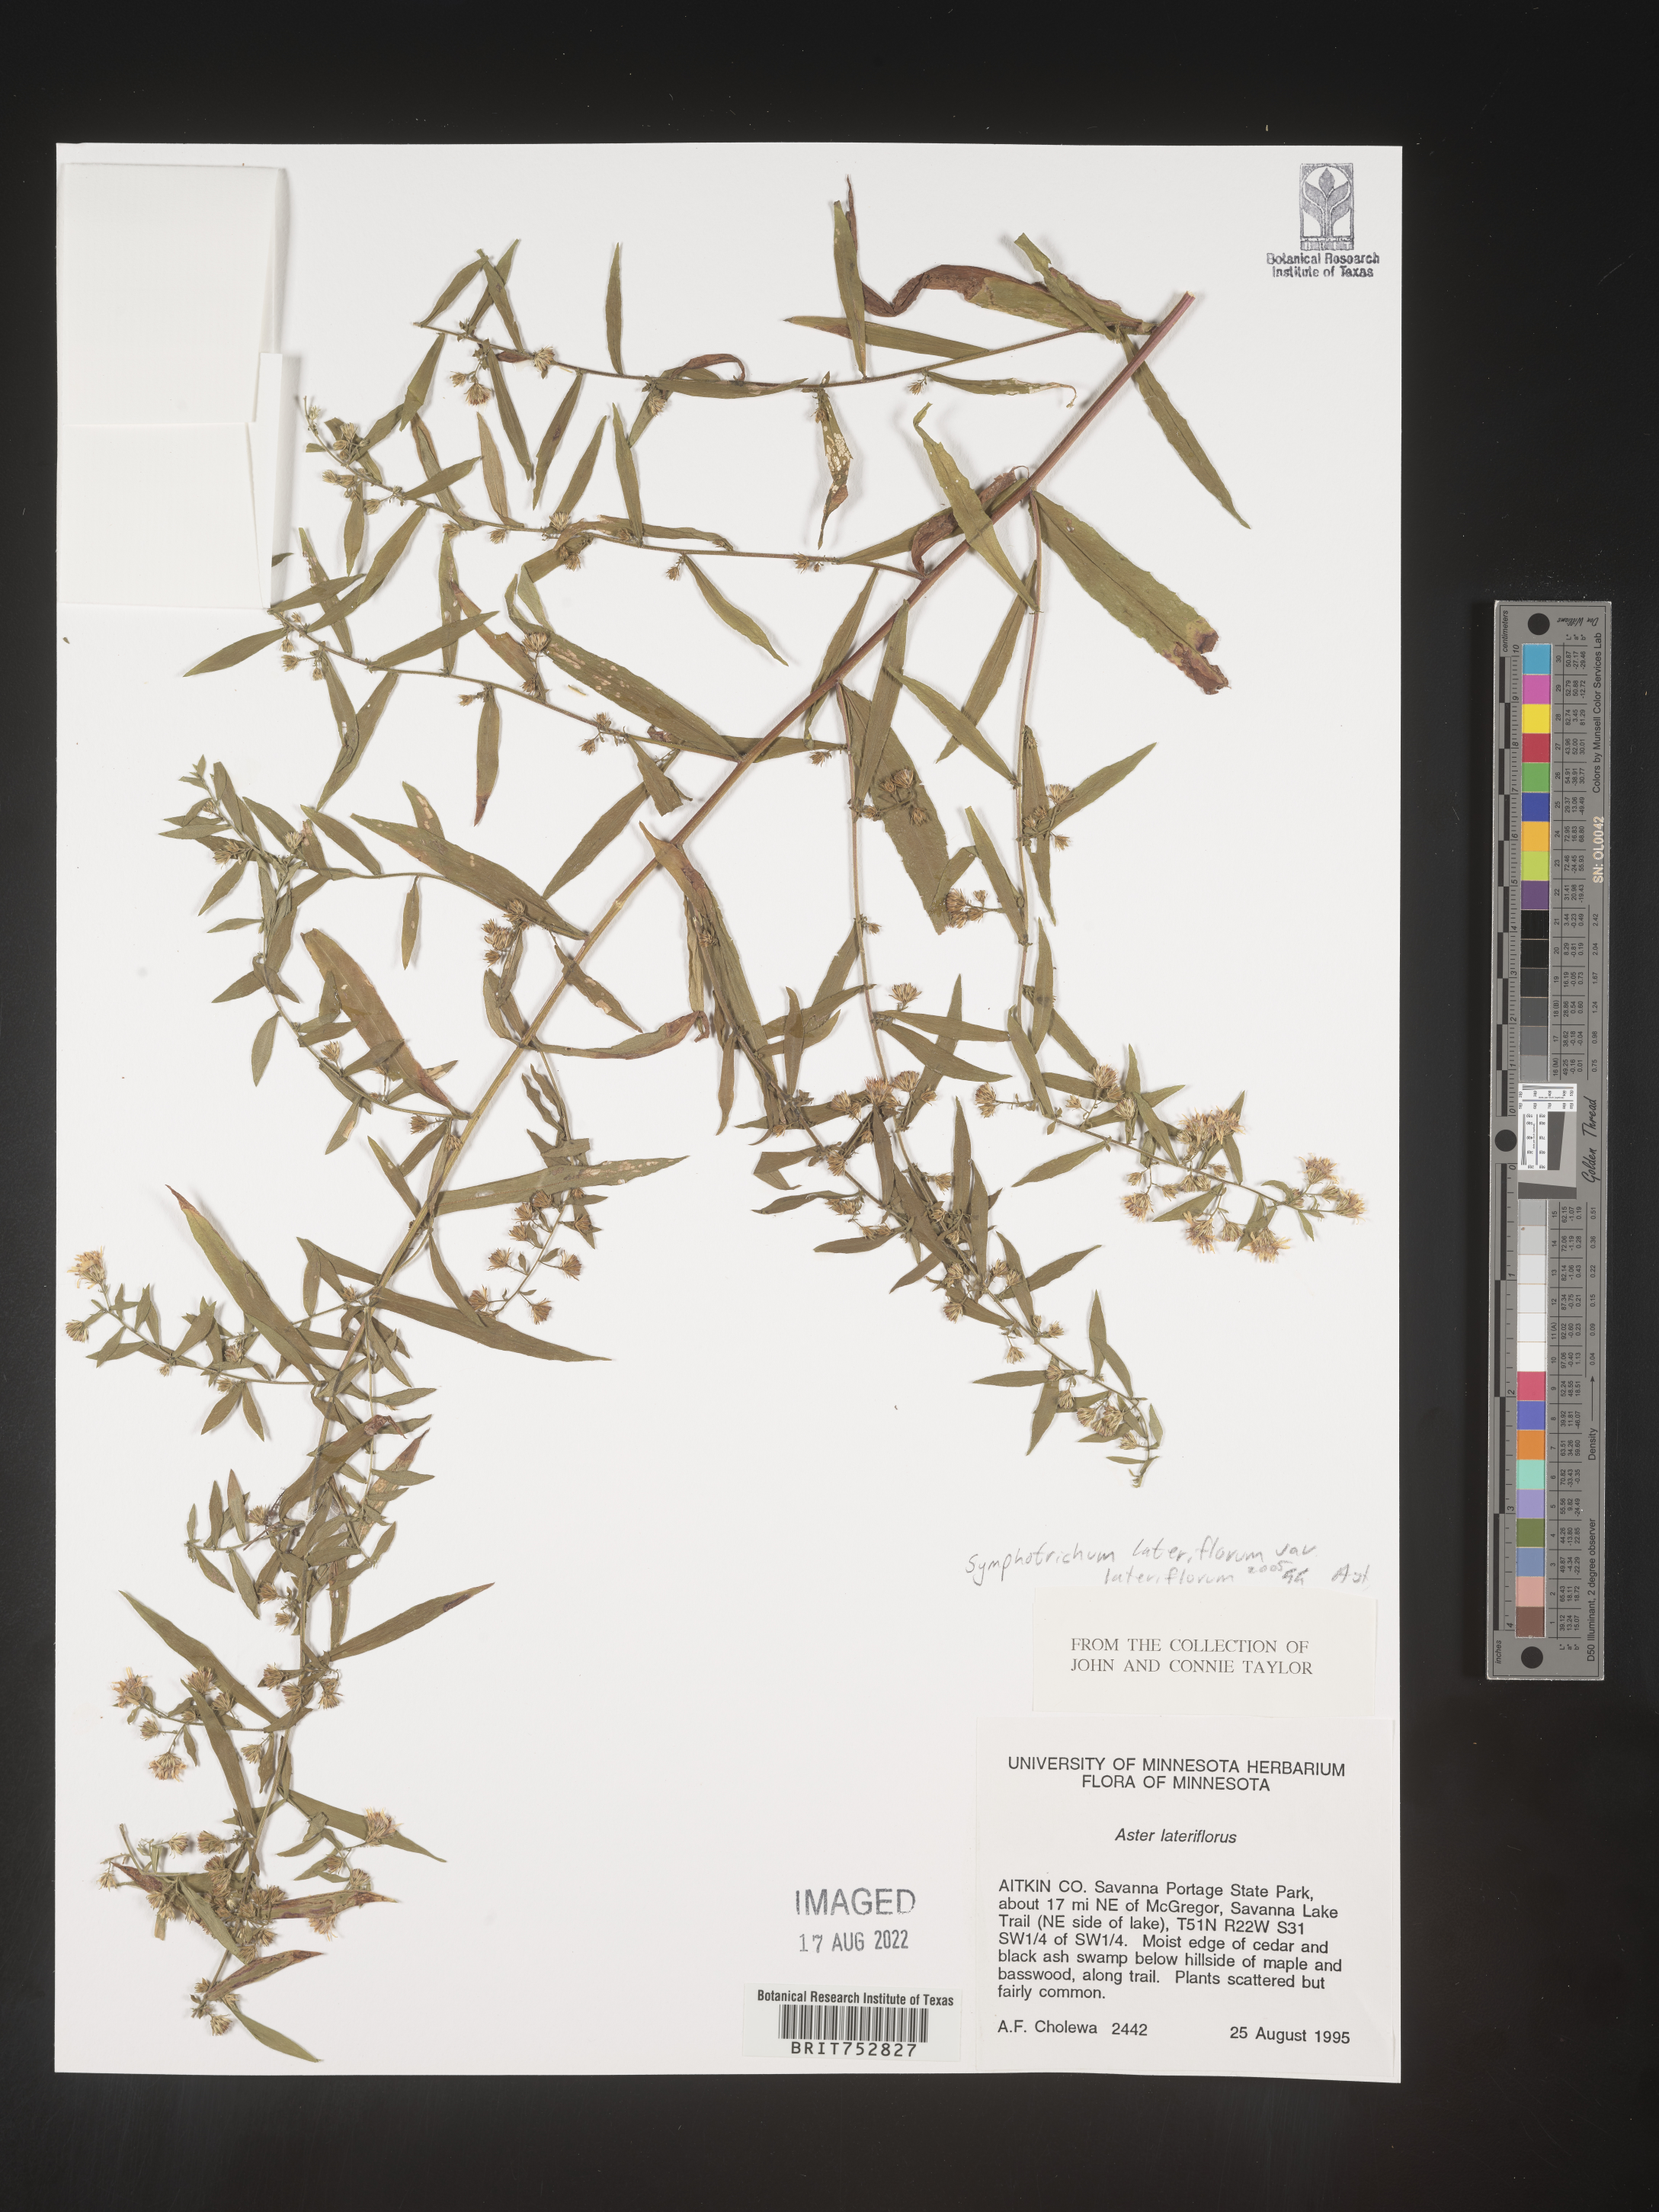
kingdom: Plantae
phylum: Tracheophyta
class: Magnoliopsida
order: Asterales
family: Asteraceae
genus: Symphyotrichum
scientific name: Symphyotrichum lateriflorum
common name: Calico aster
